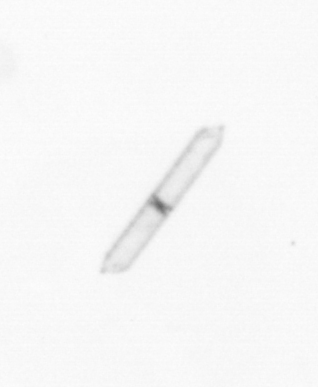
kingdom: Chromista
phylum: Ochrophyta
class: Bacillariophyceae
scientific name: Bacillariophyceae
